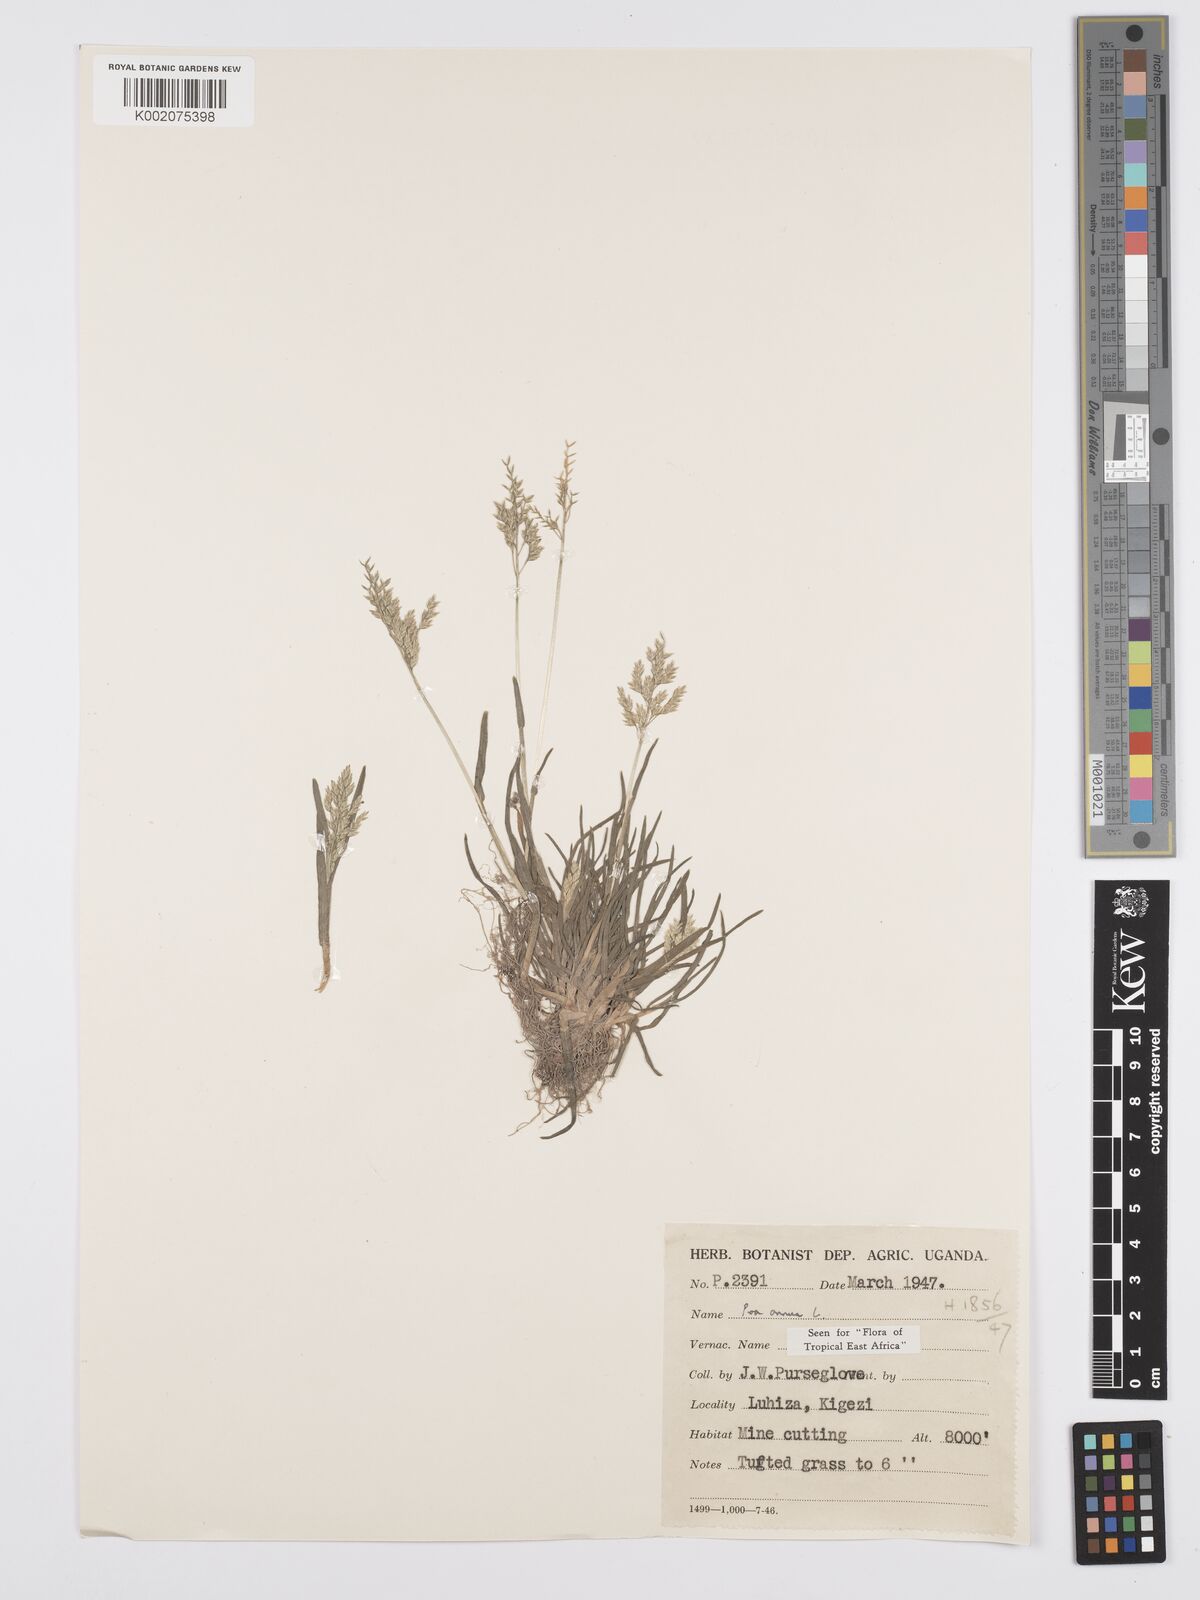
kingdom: Plantae
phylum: Tracheophyta
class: Liliopsida
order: Poales
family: Poaceae
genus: Poa
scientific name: Poa annua
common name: Annual bluegrass
